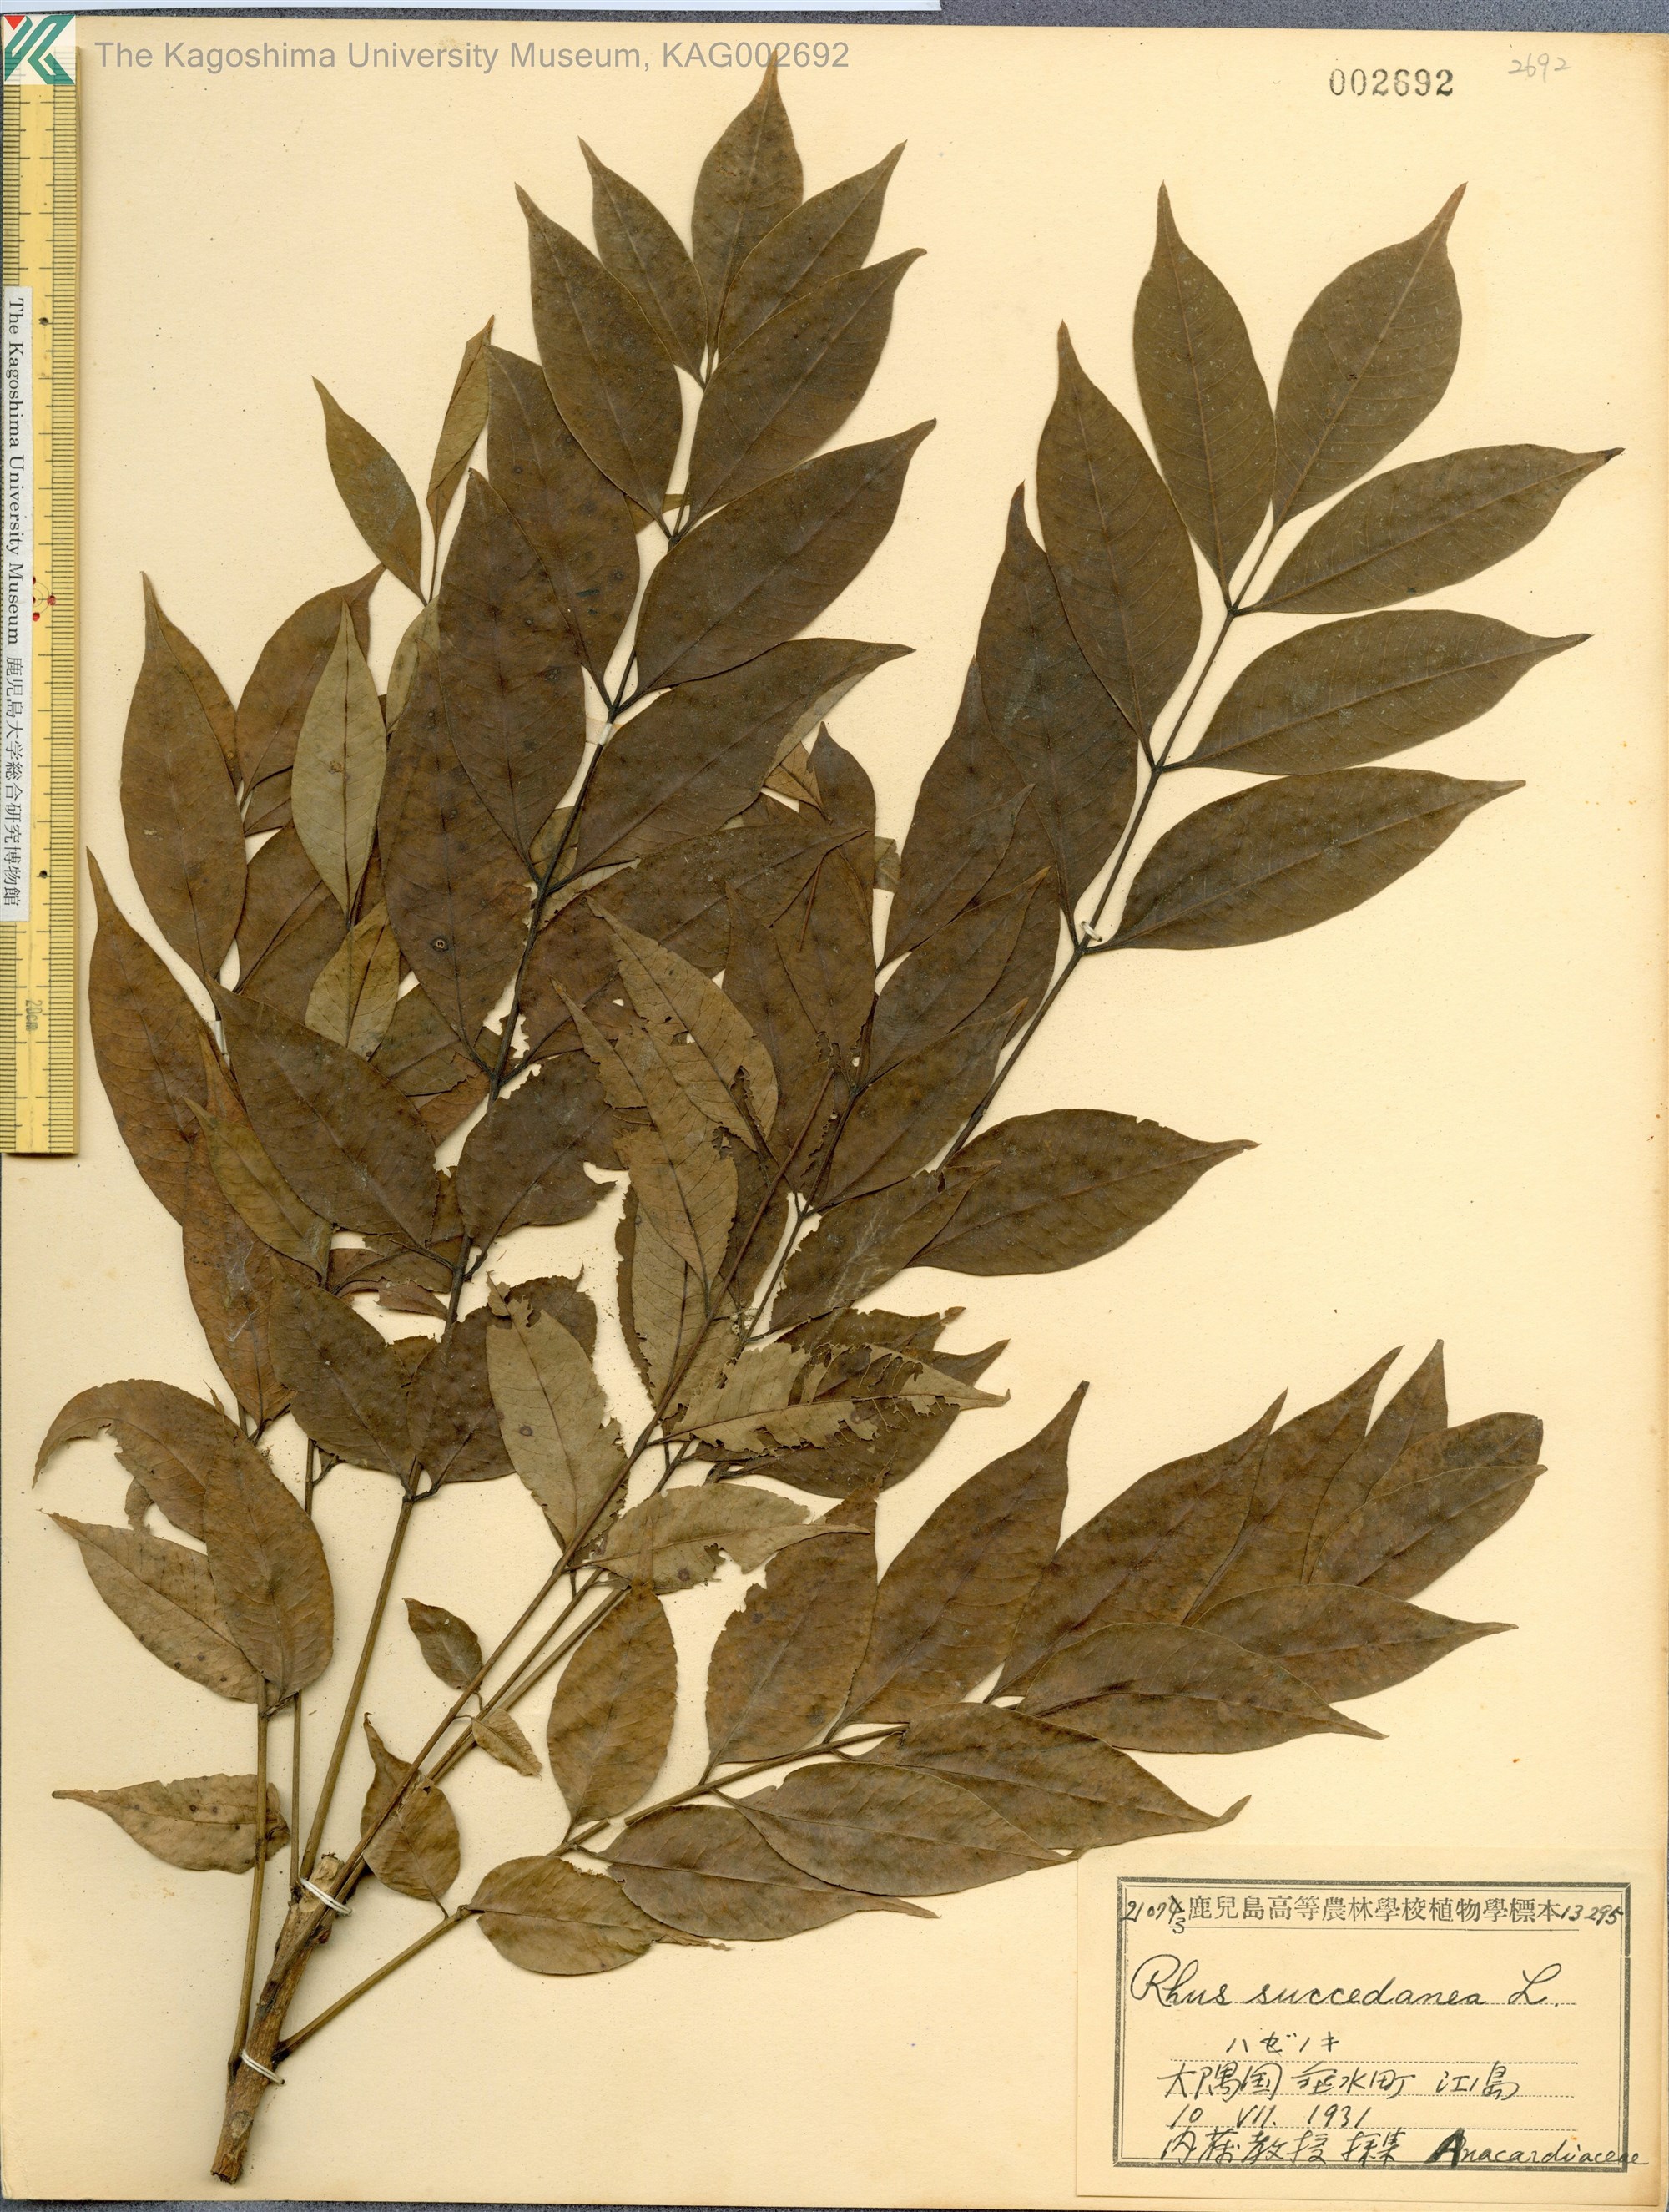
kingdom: Plantae
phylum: Tracheophyta
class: Magnoliopsida
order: Sapindales
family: Anacardiaceae
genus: Toxicodendron
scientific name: Toxicodendron succedaneum
